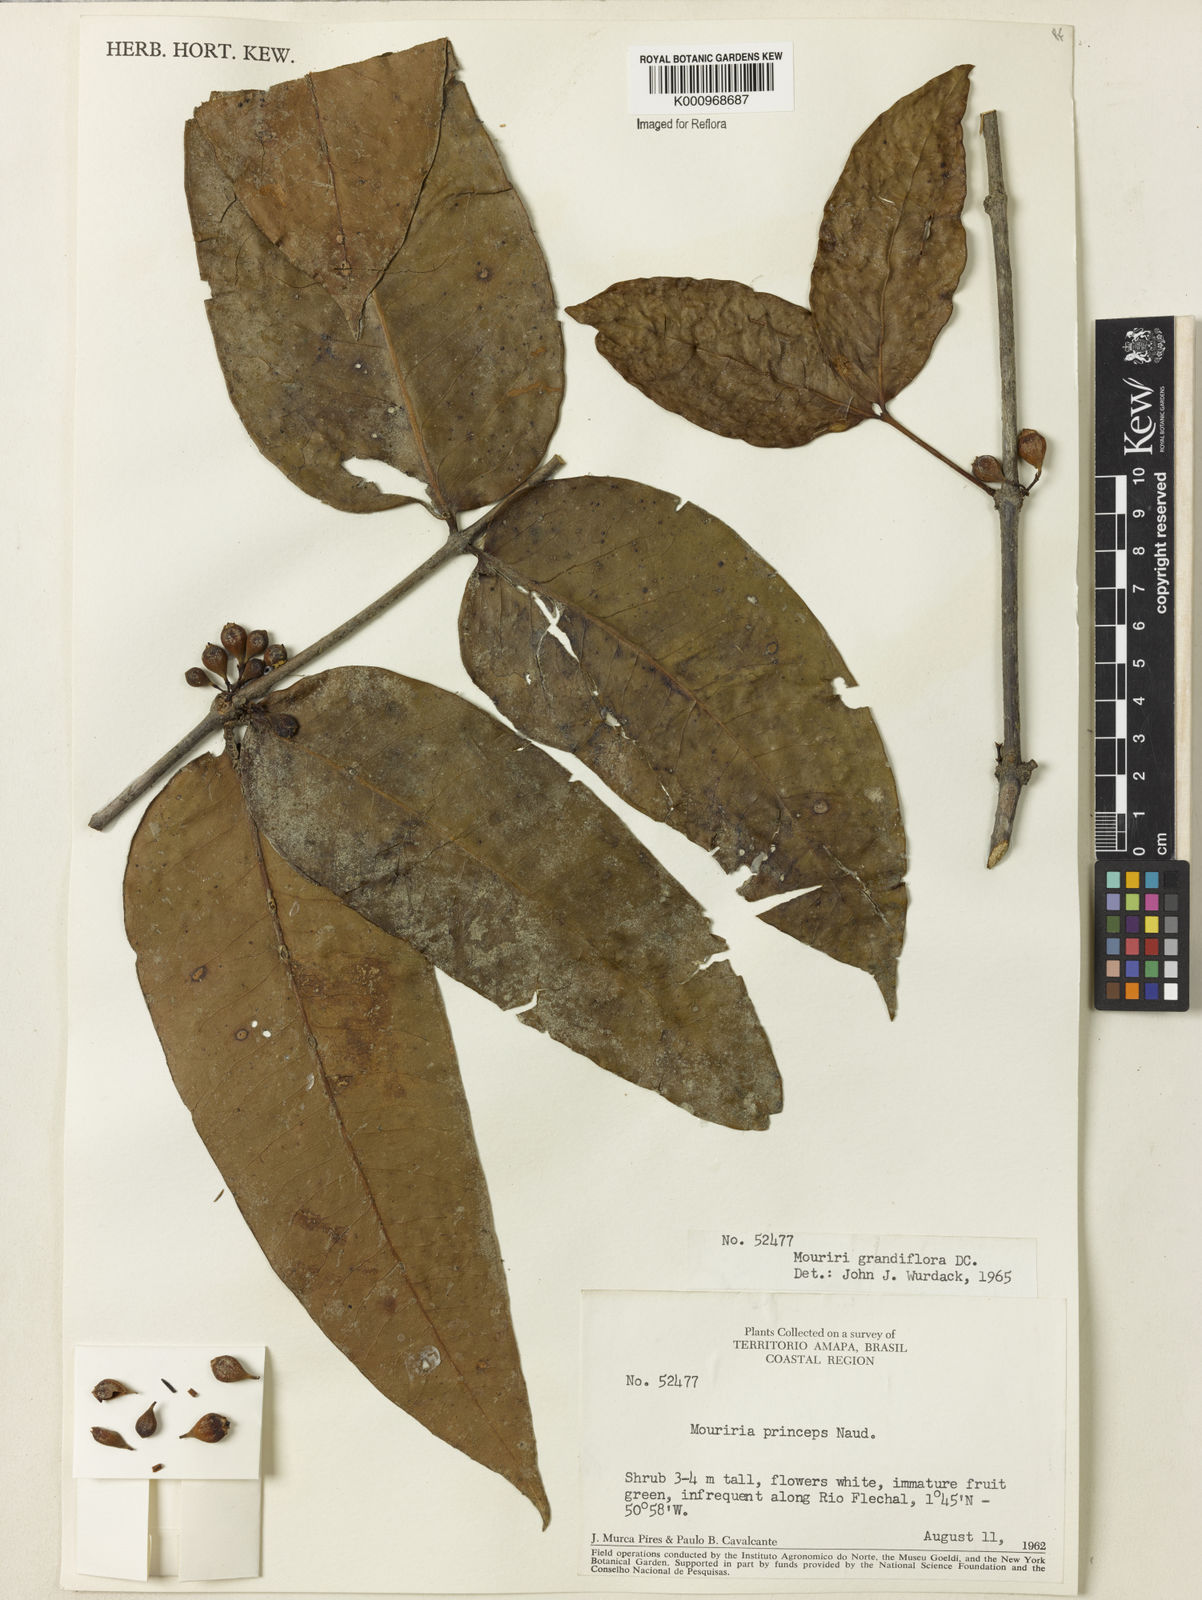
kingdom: Plantae
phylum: Tracheophyta
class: Magnoliopsida
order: Myrtales
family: Melastomataceae
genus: Mouriri
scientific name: Mouriri grandiflora
